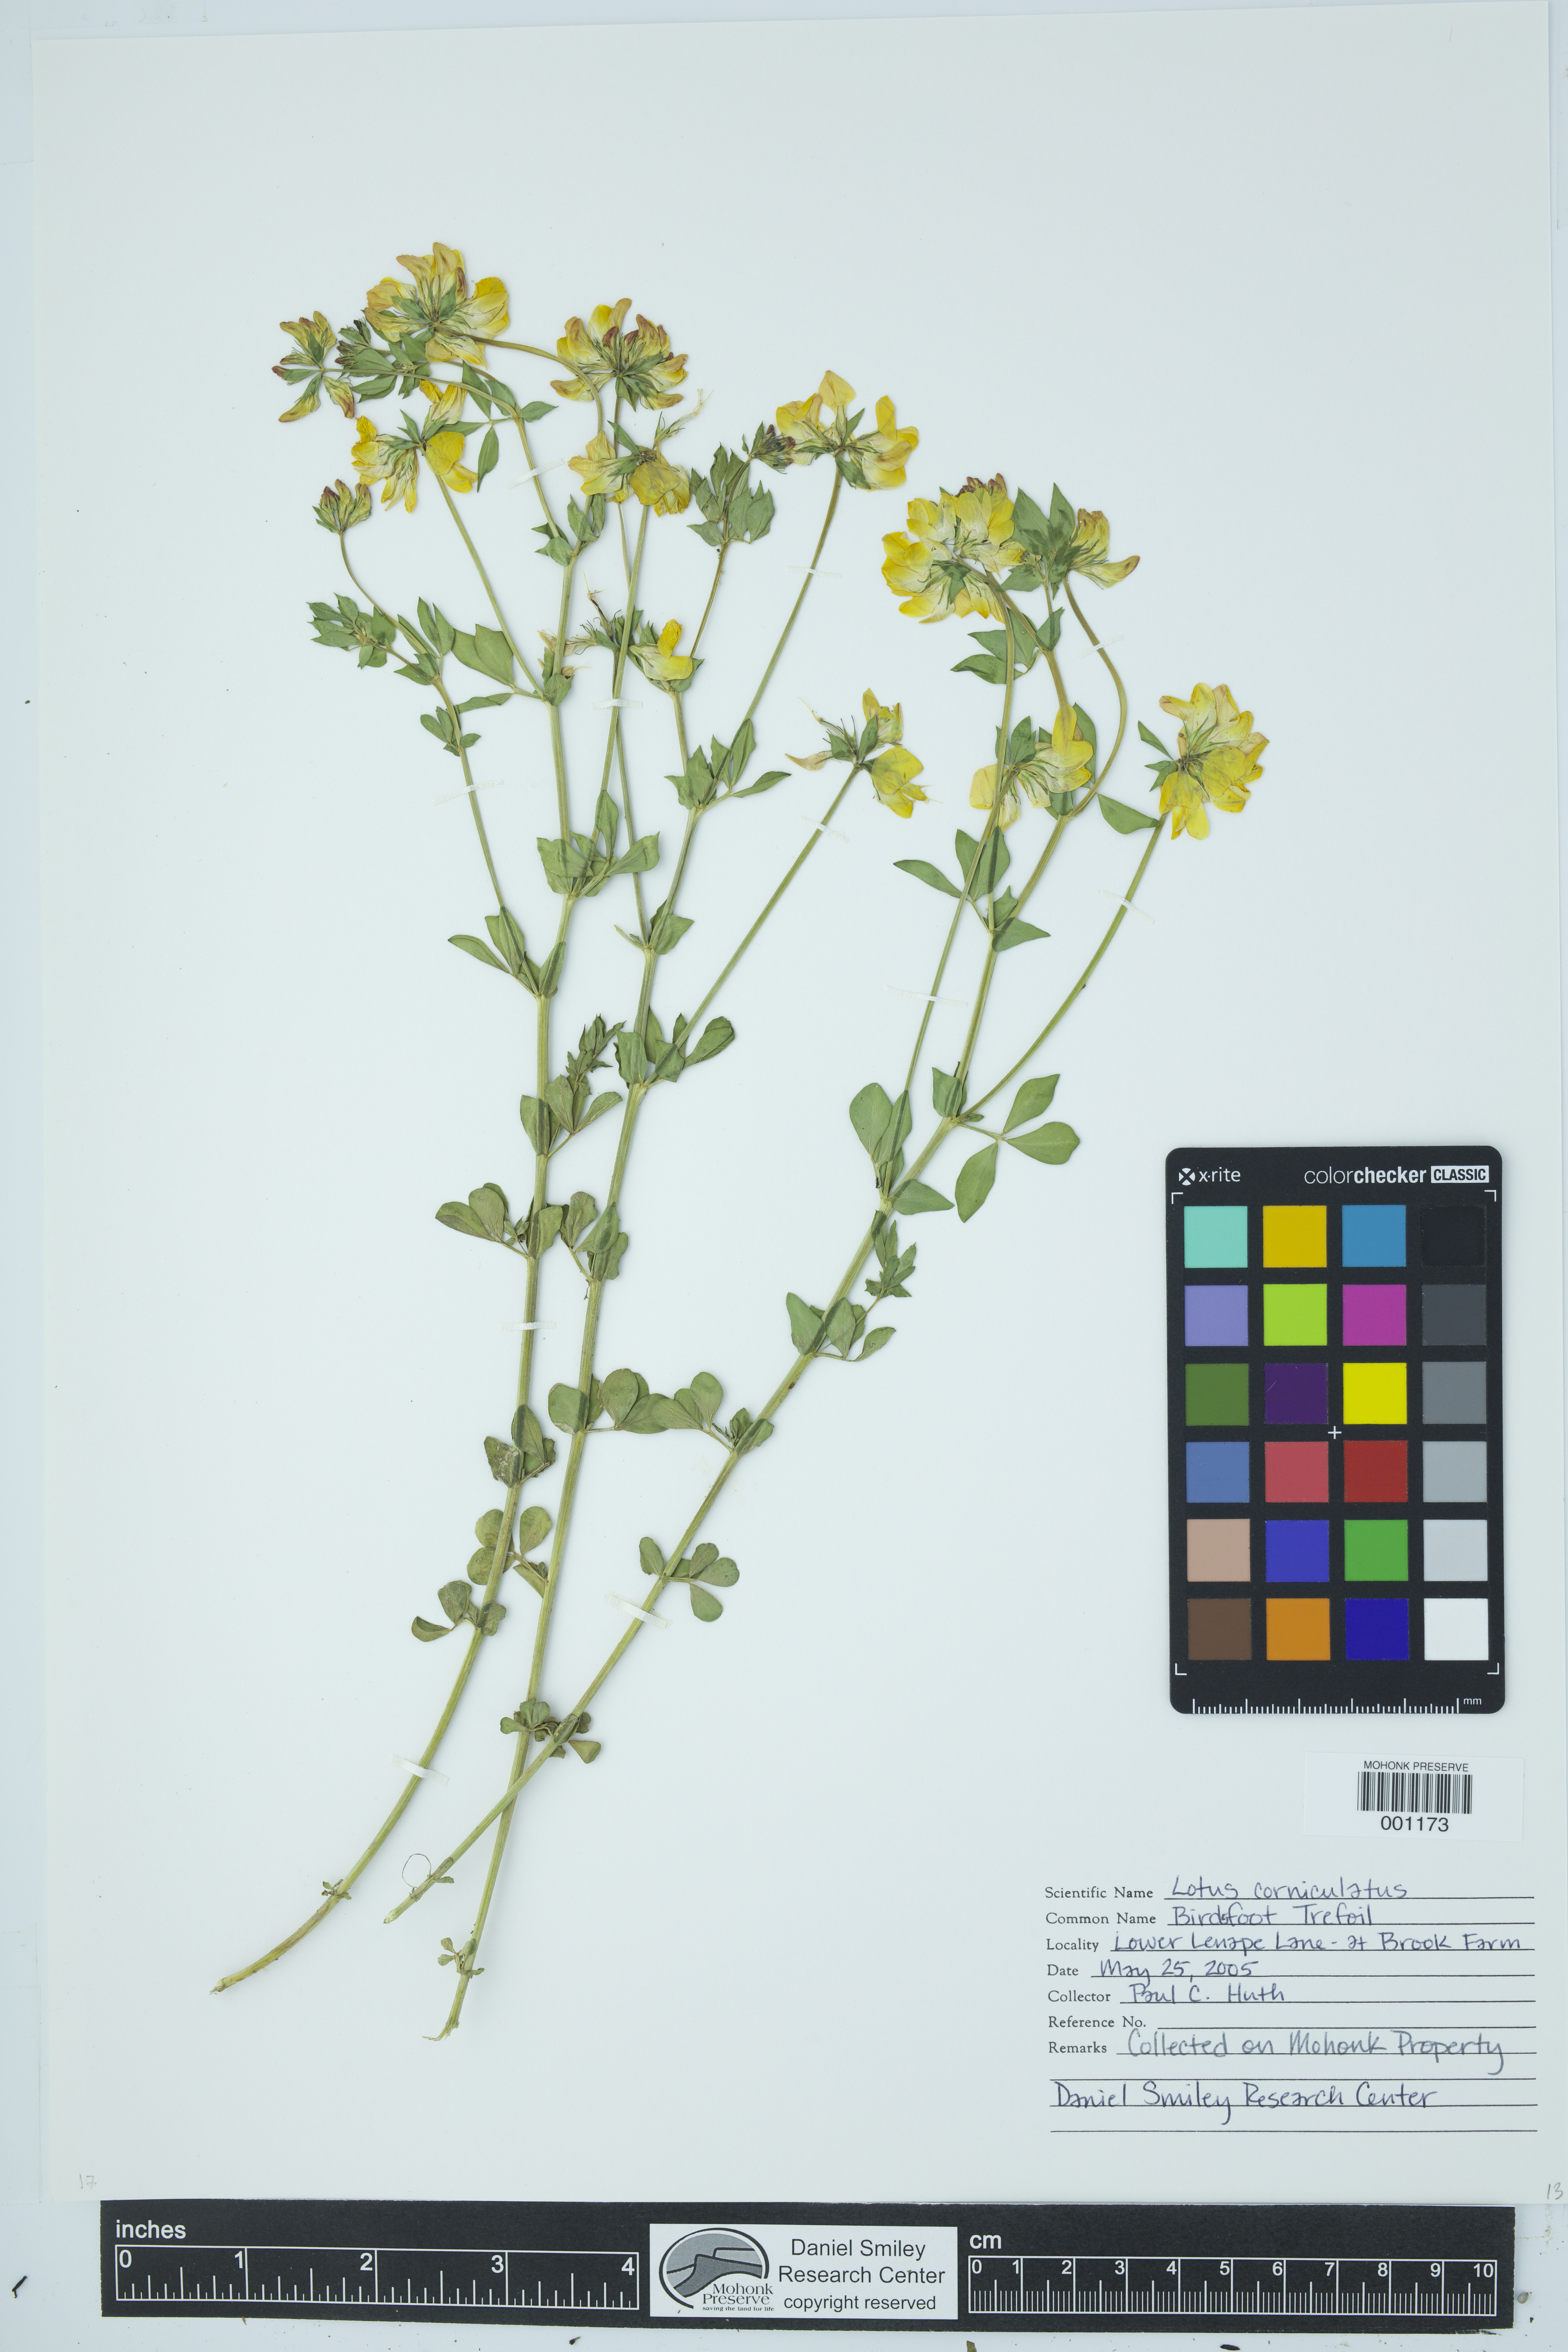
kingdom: Plantae
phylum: Tracheophyta
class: Magnoliopsida
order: Fabales
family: Fabaceae
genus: Lotus
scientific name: Lotus corniculatus
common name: Common bird's-foot-trefoil
